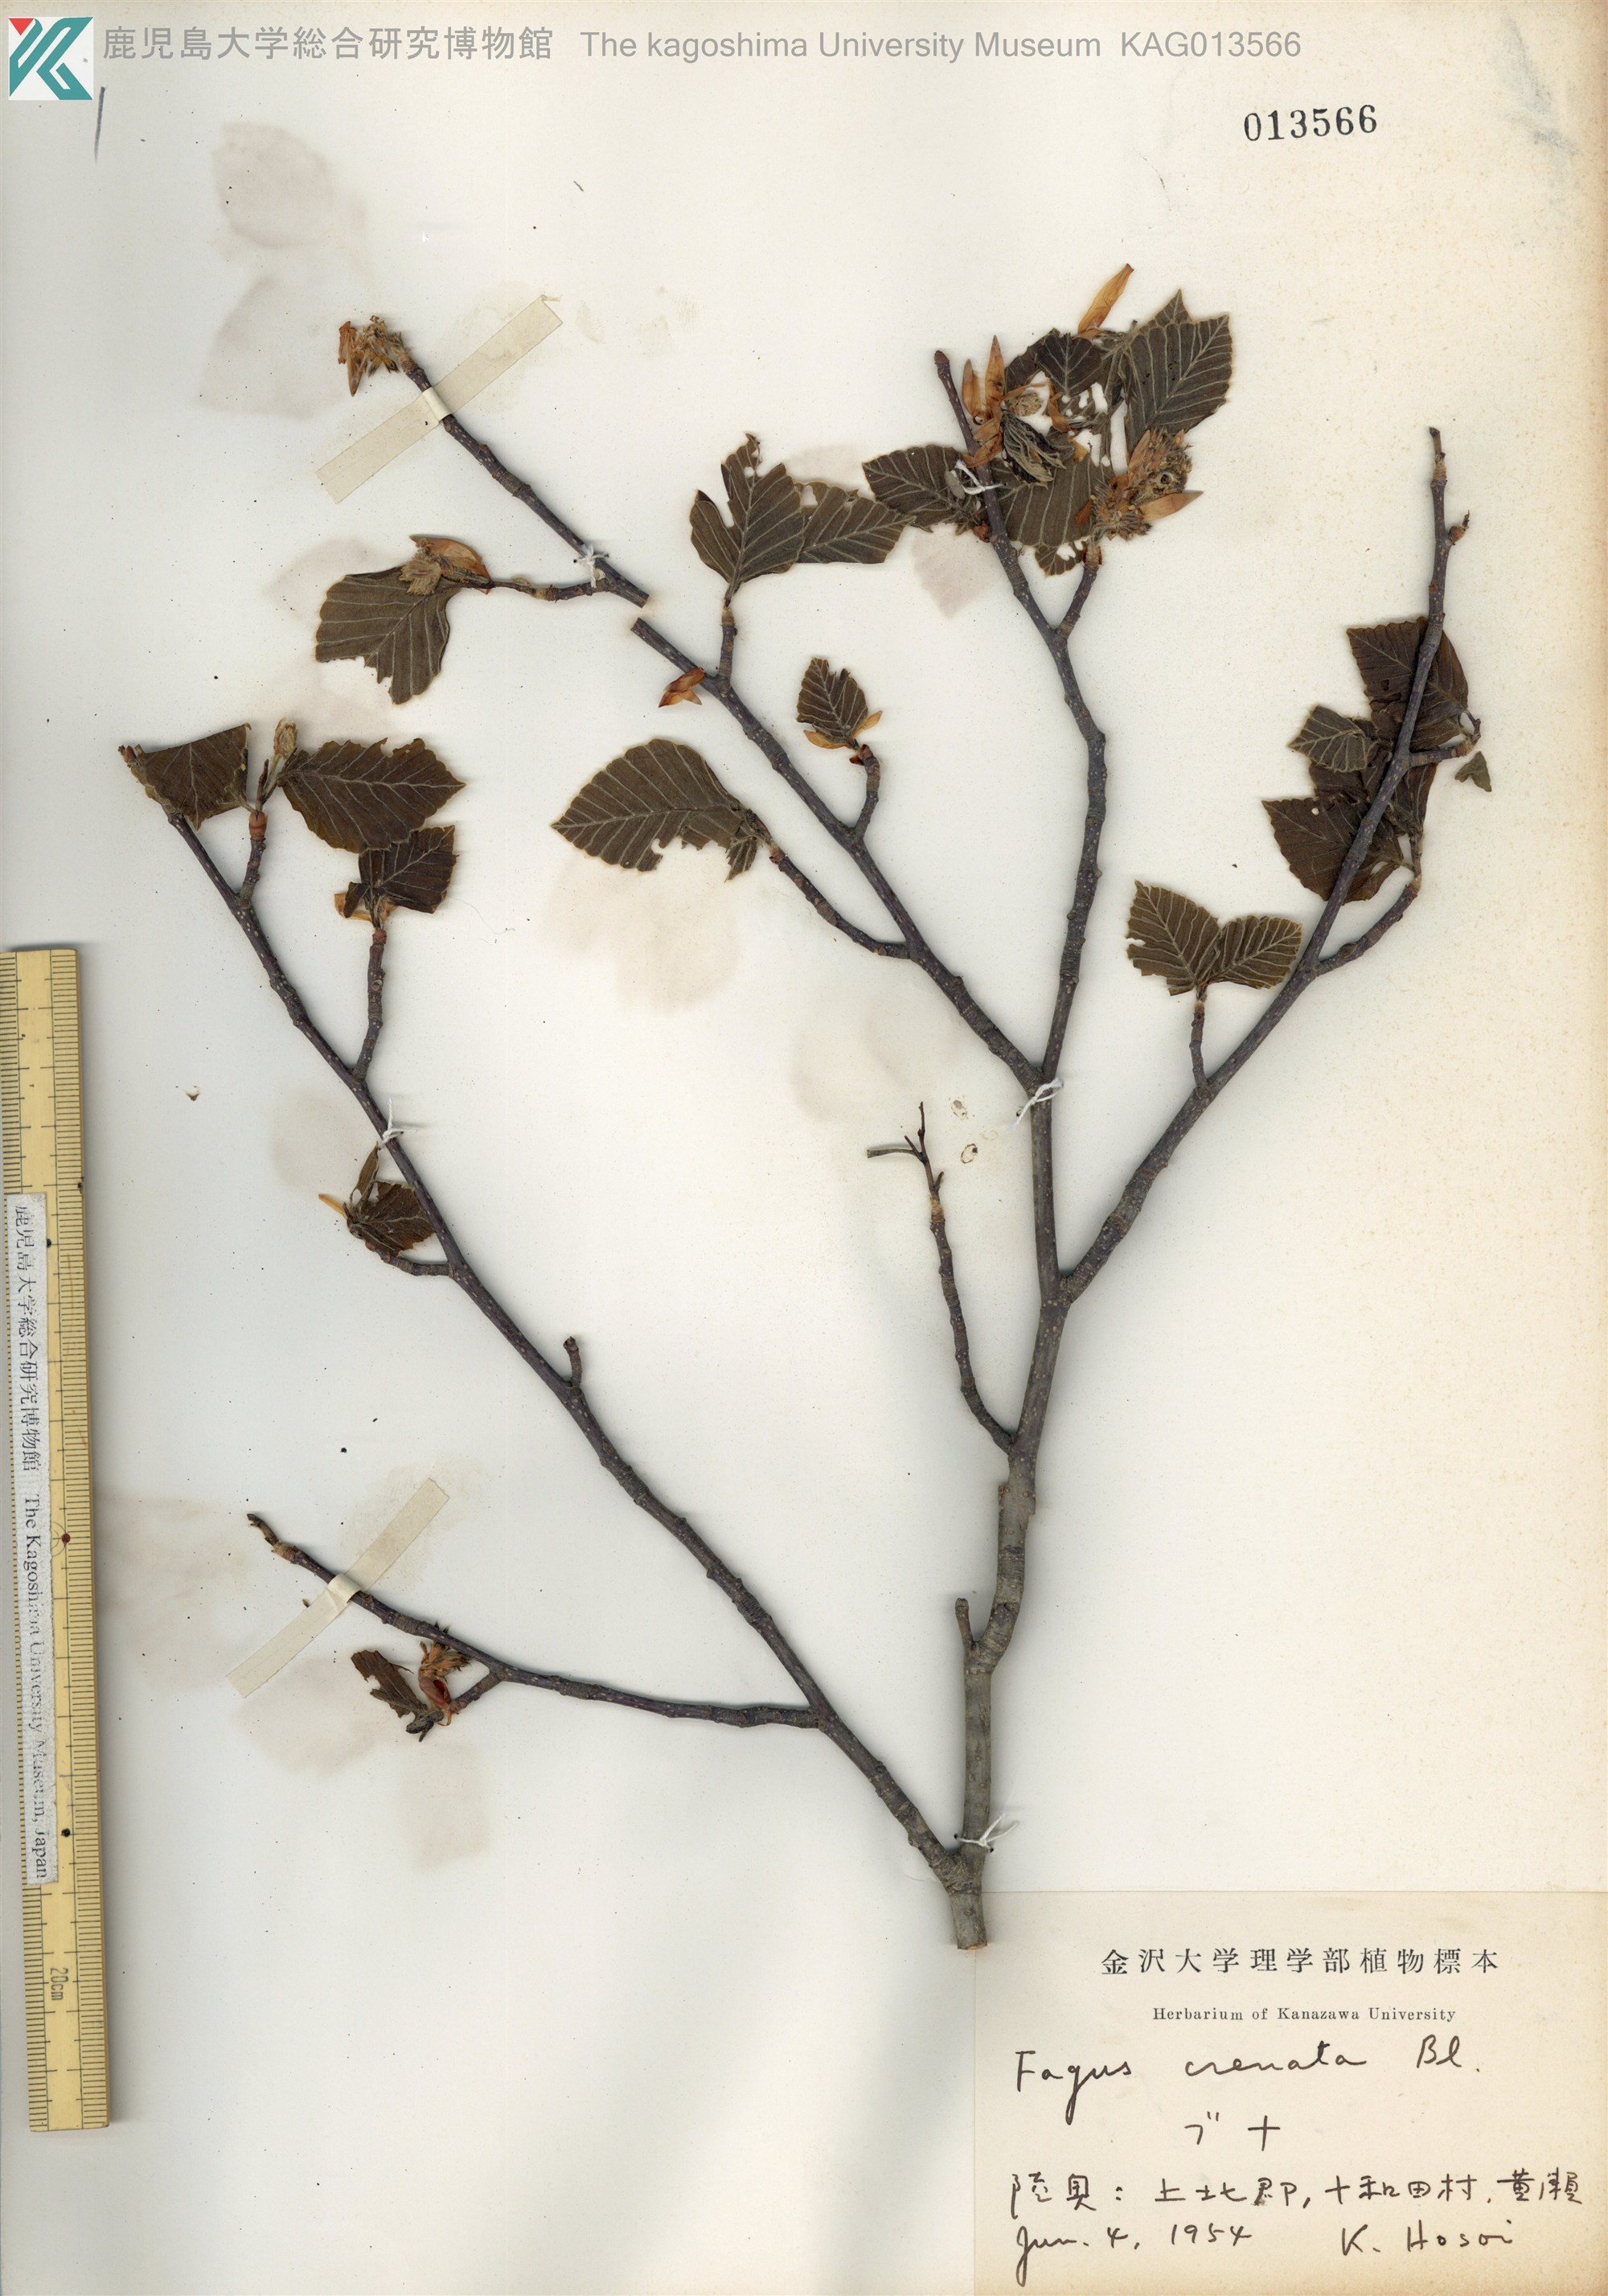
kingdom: Plantae
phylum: Tracheophyta
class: Magnoliopsida
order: Fagales
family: Fagaceae
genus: Fagus
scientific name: Fagus crenata
